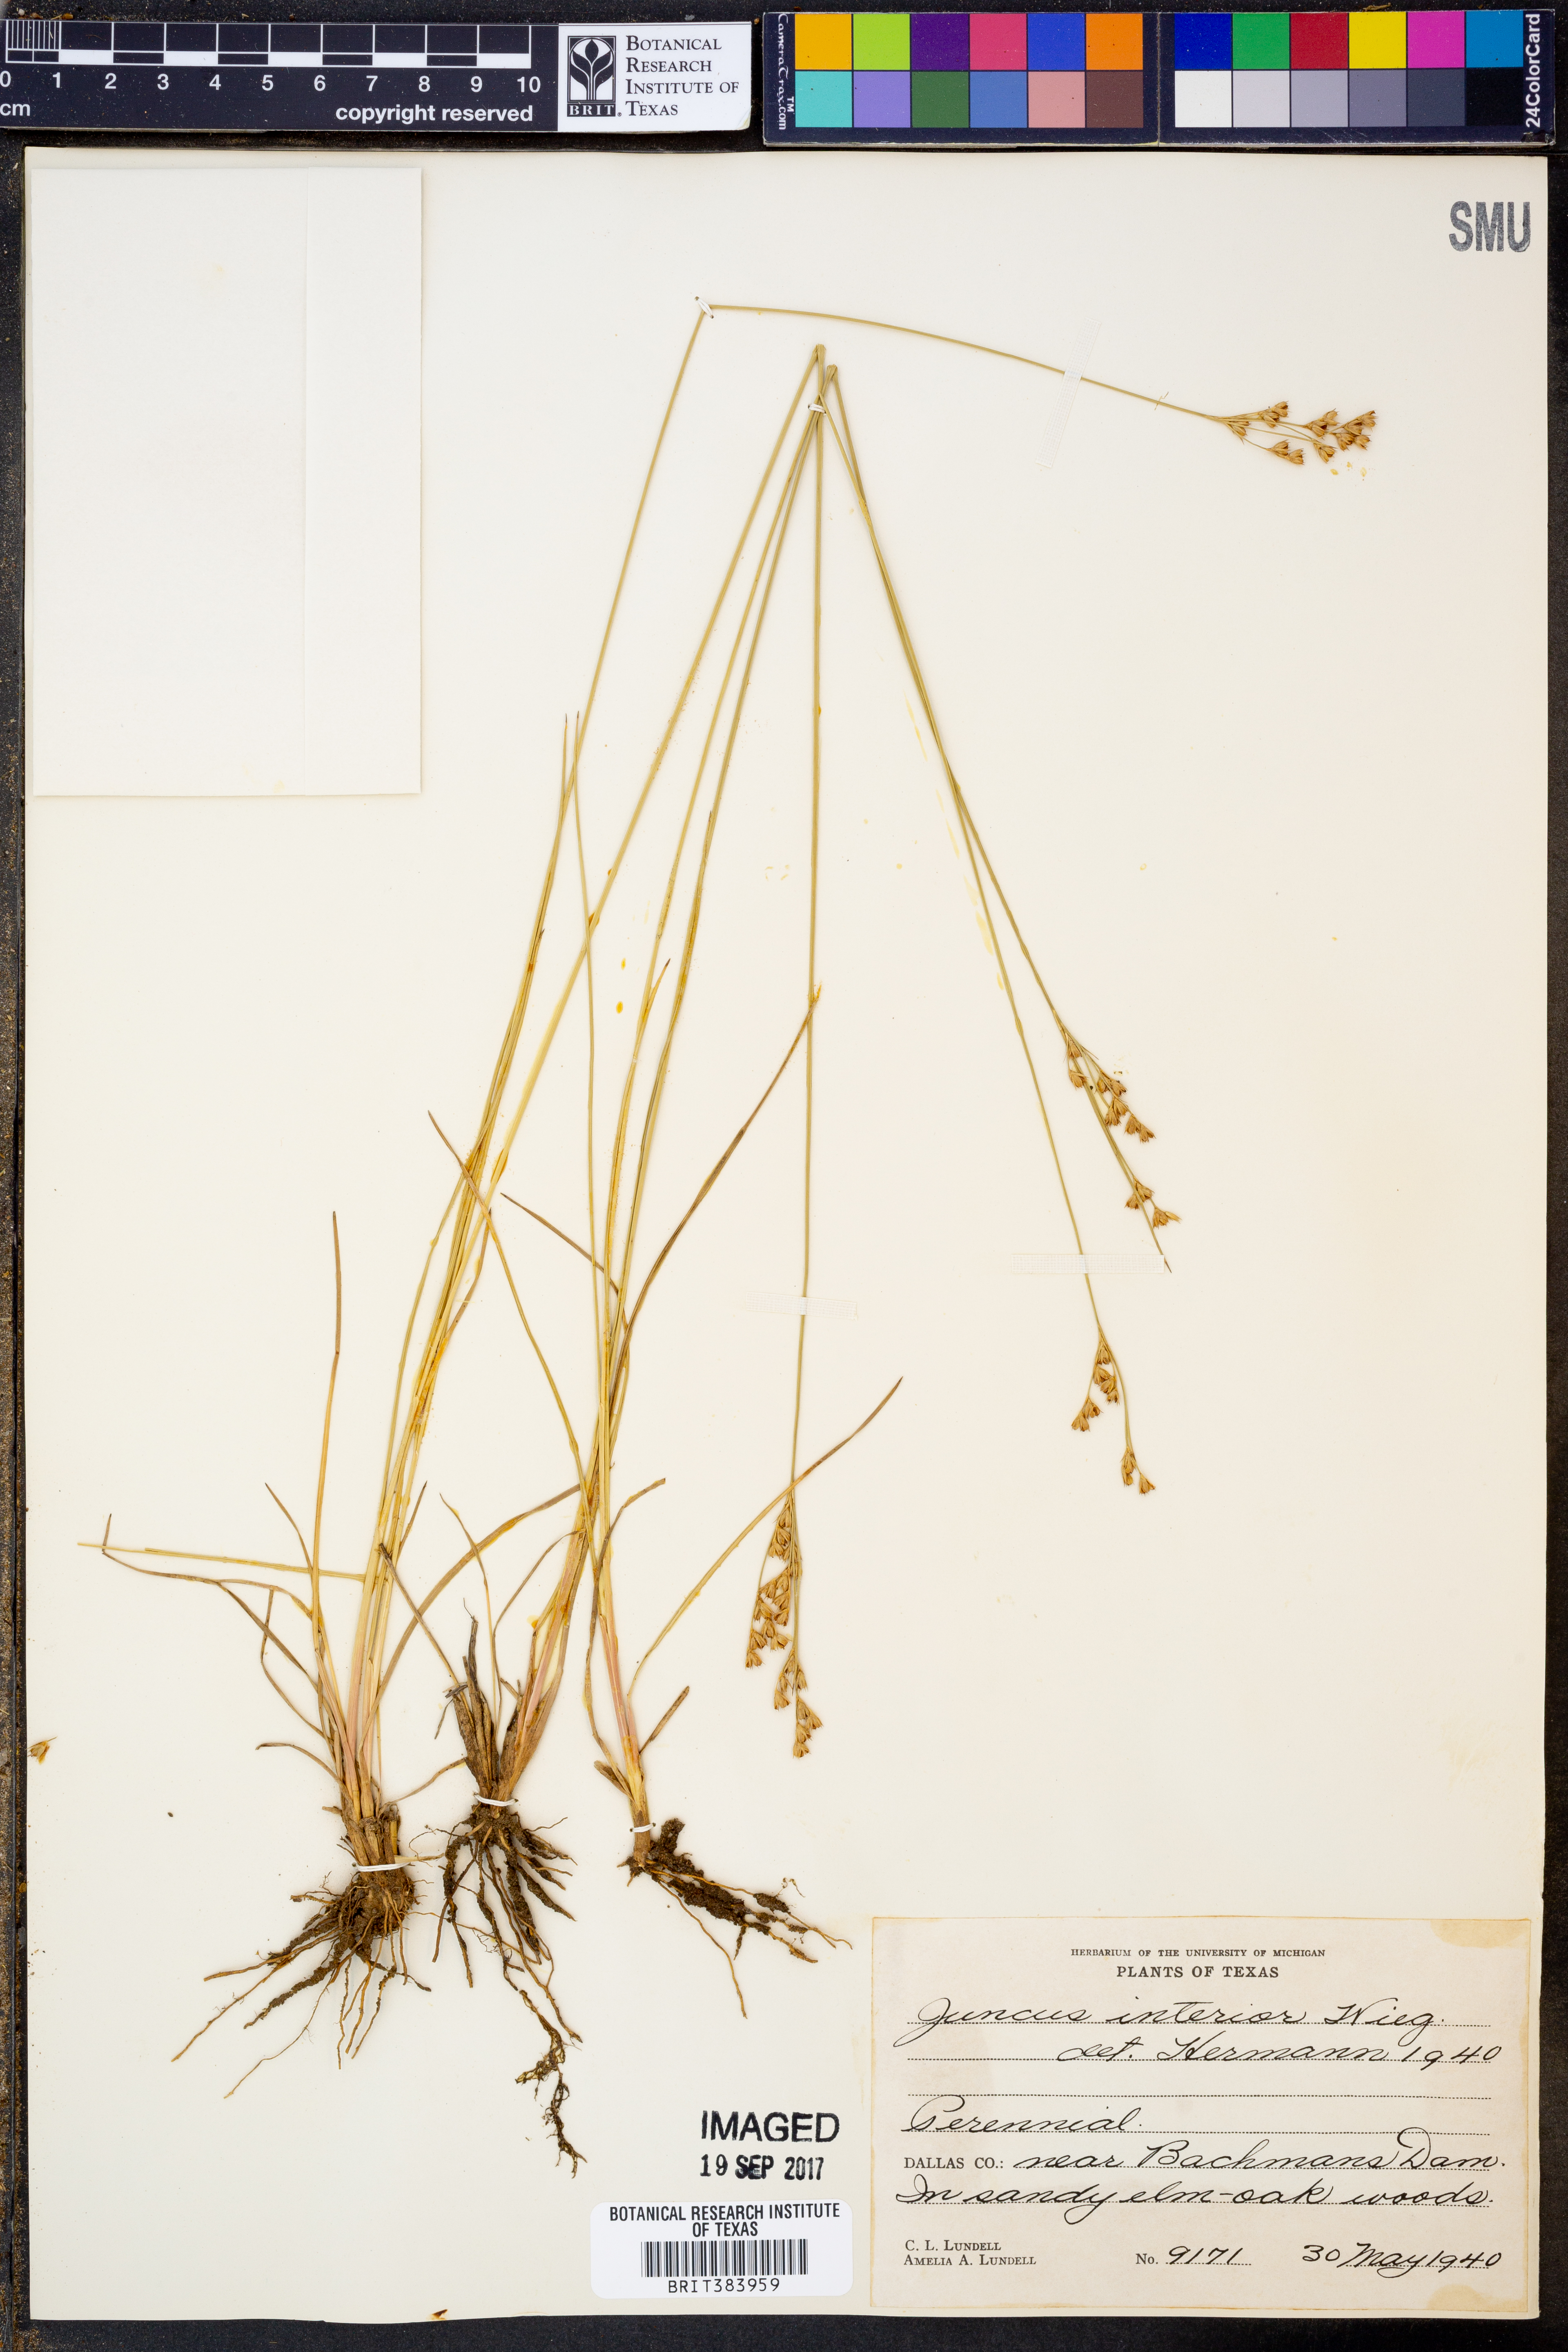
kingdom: Plantae
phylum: Tracheophyta
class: Liliopsida
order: Poales
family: Juncaceae
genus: Juncus
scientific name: Juncus interior
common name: Interior rush
